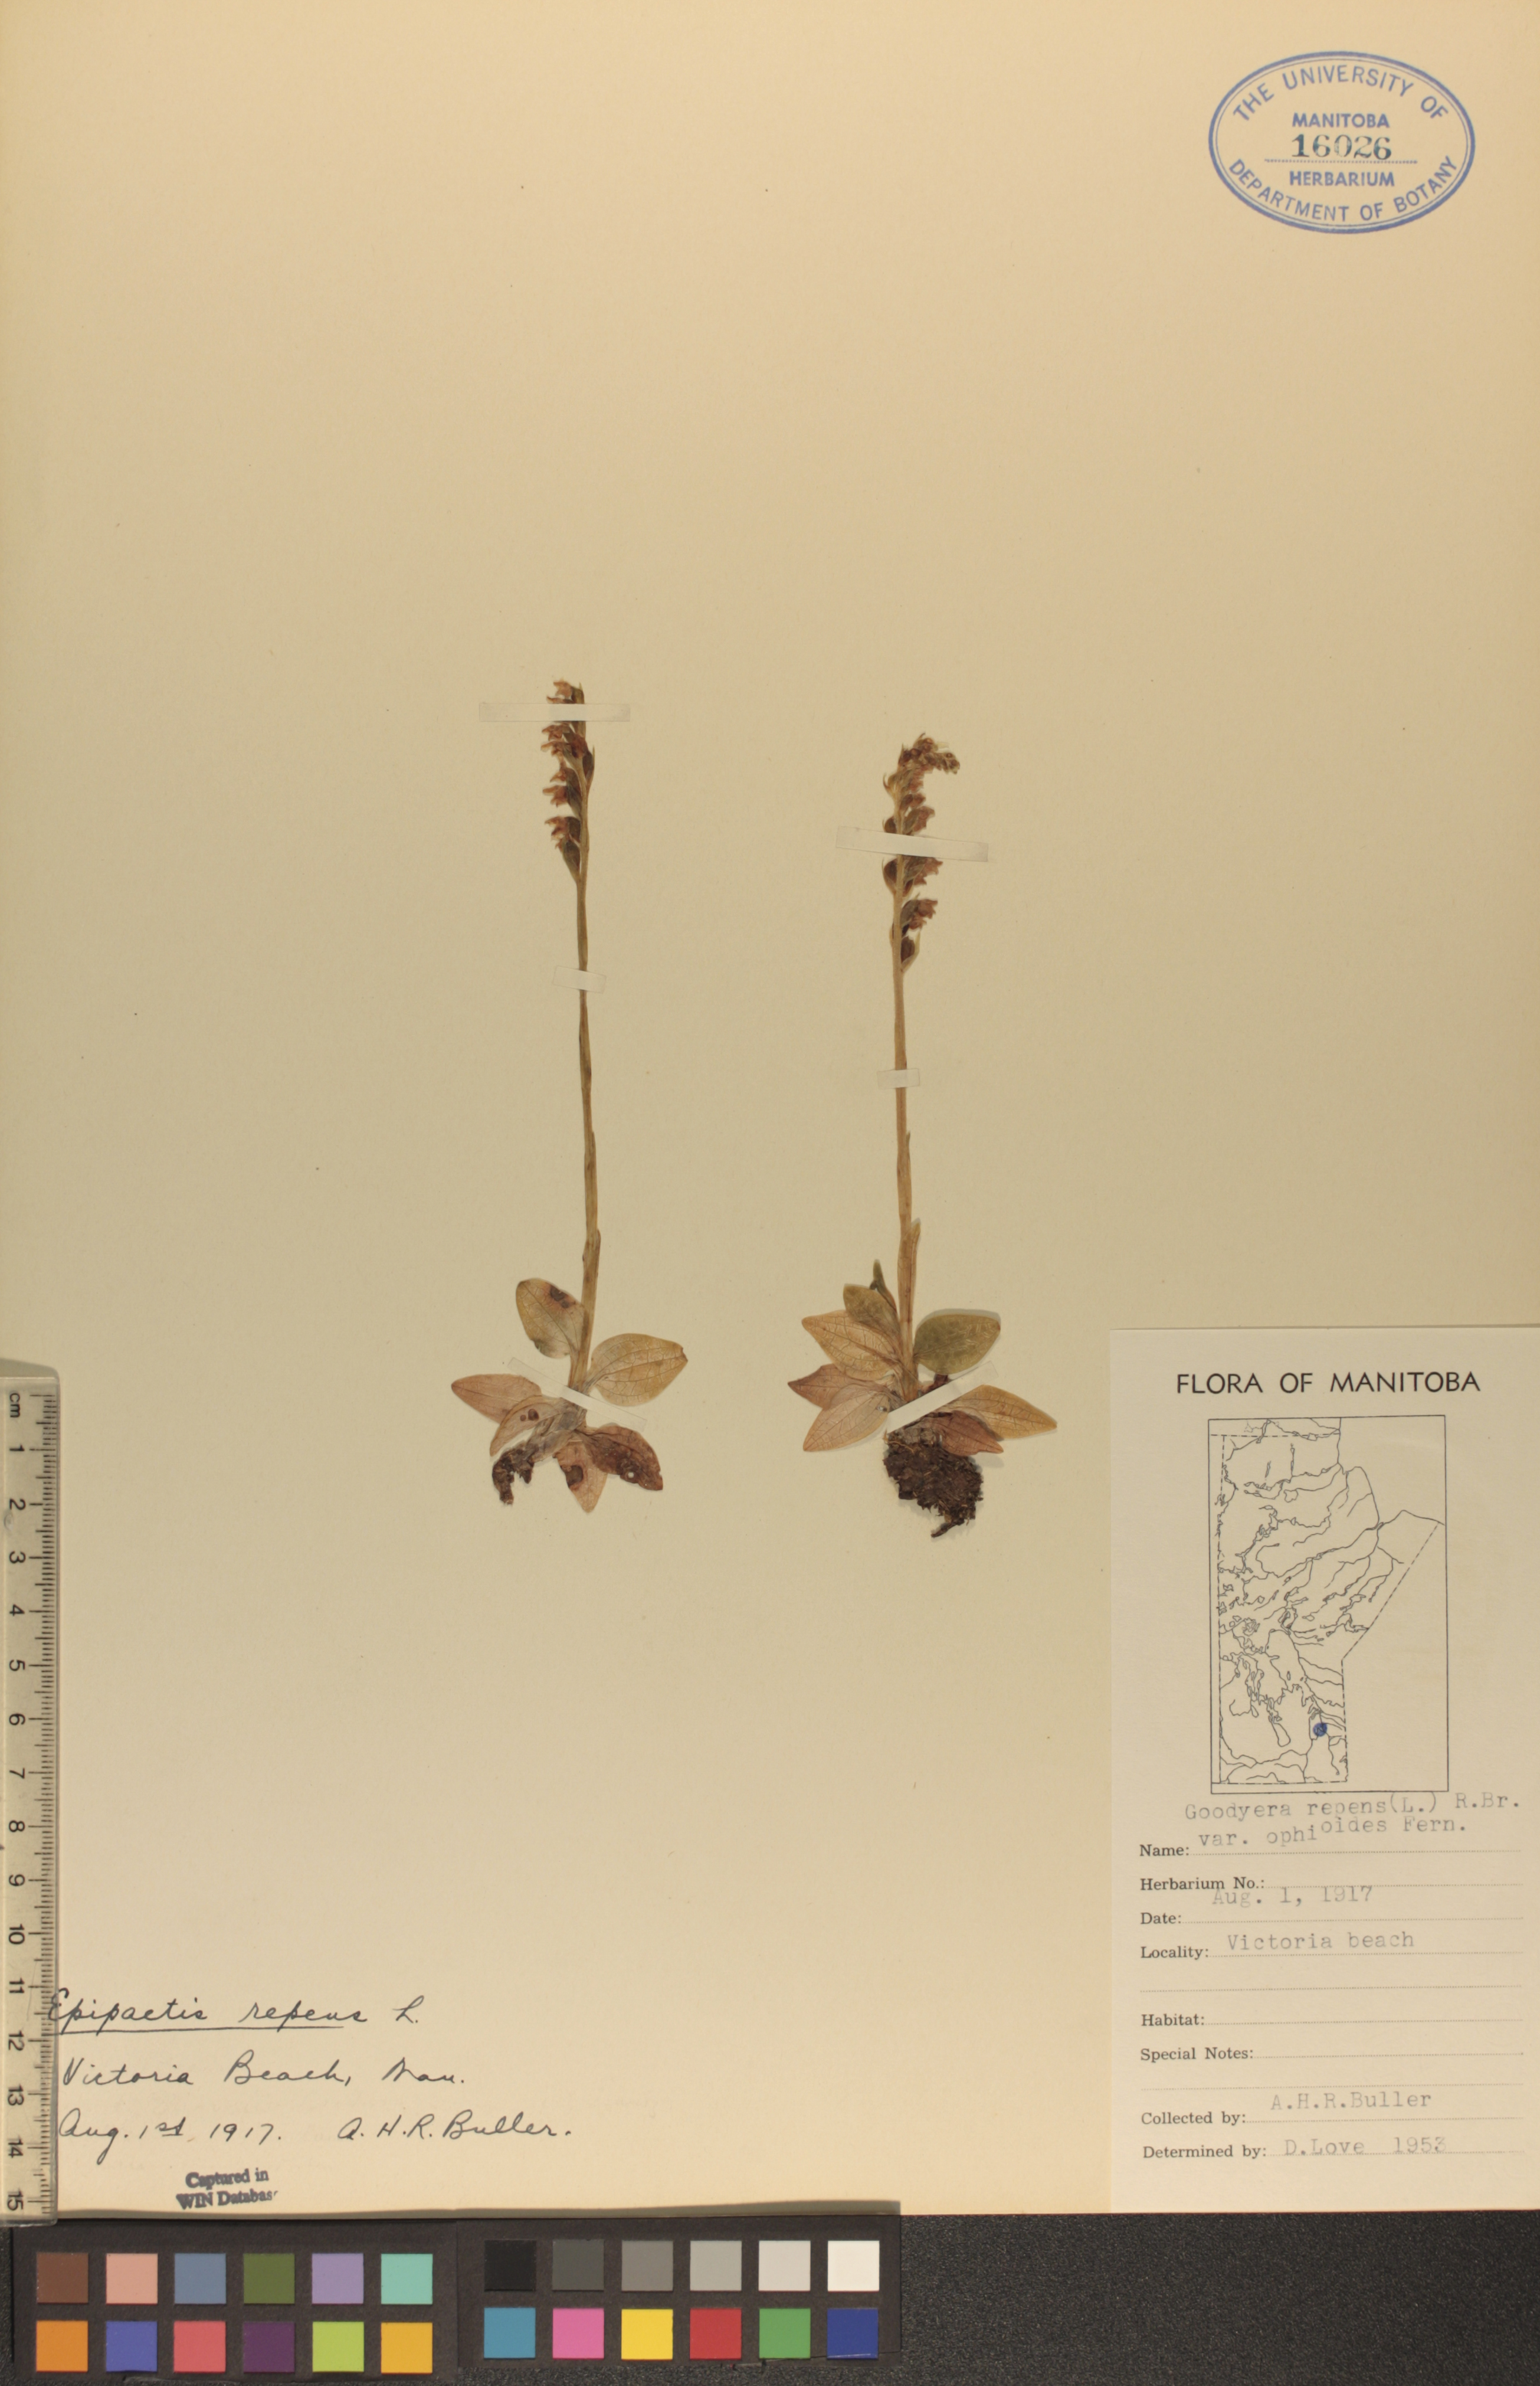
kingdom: Plantae
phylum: Tracheophyta
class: Liliopsida
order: Asparagales
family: Orchidaceae
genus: Goodyera
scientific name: Goodyera repens
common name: Creeping lady's-tresses
